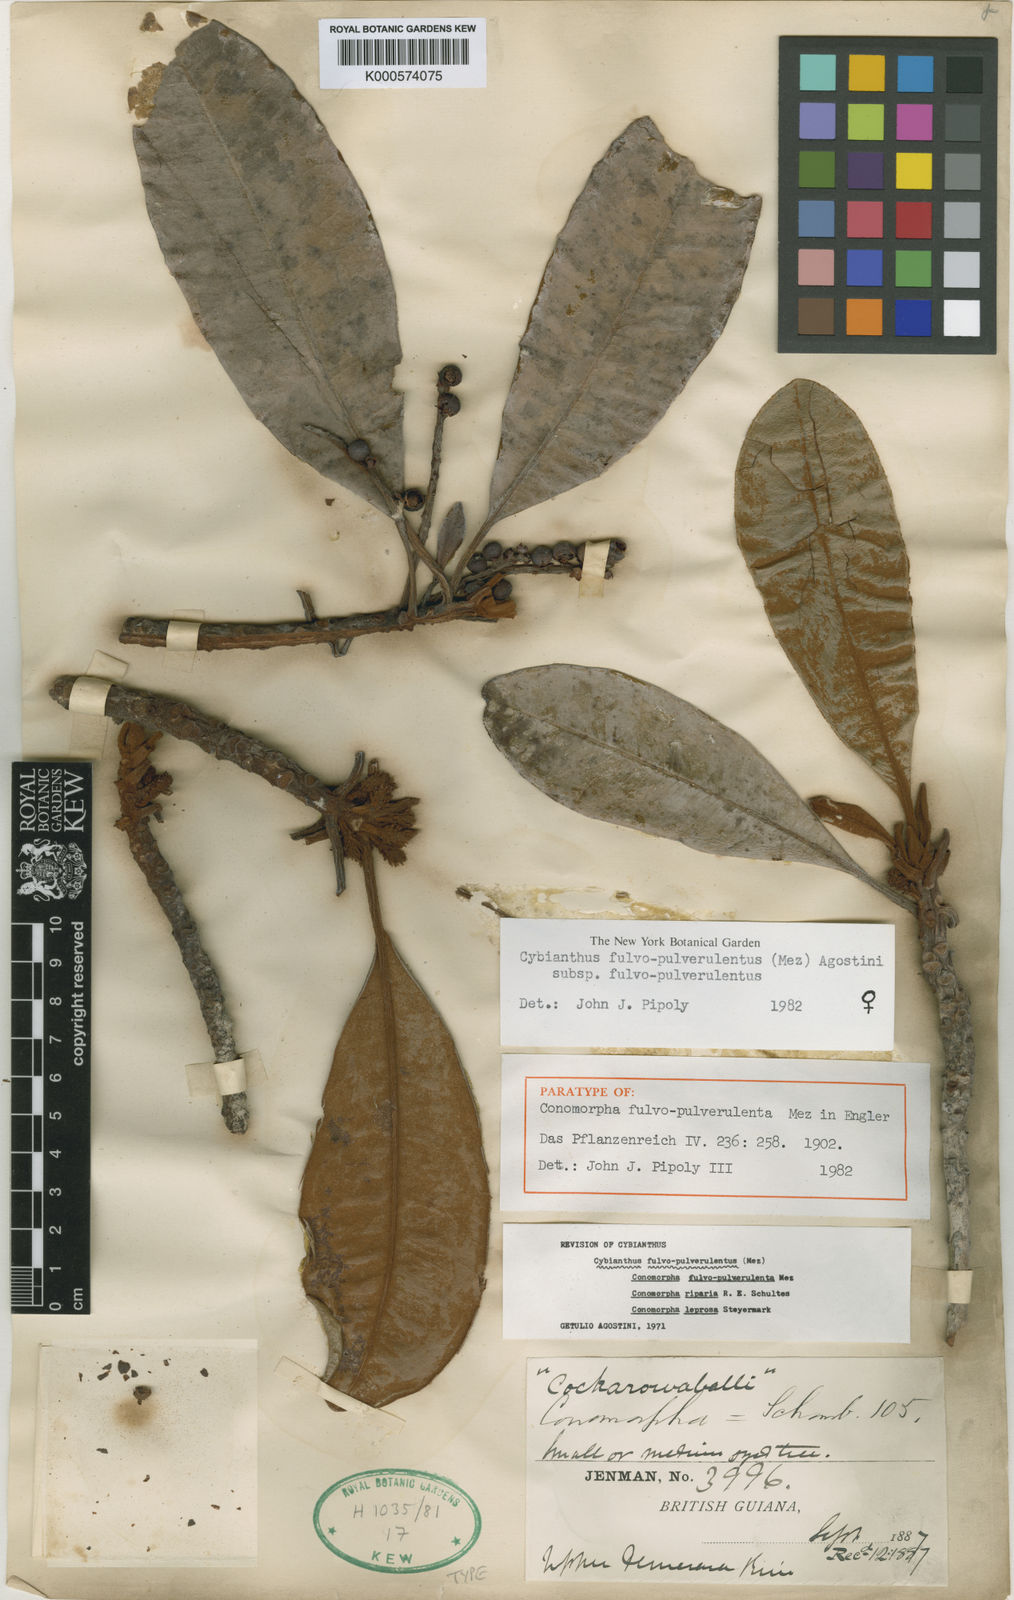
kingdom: Plantae
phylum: Tracheophyta
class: Magnoliopsida
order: Ericales
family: Primulaceae
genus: Cybianthus
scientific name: Cybianthus fulvopulverulentus
